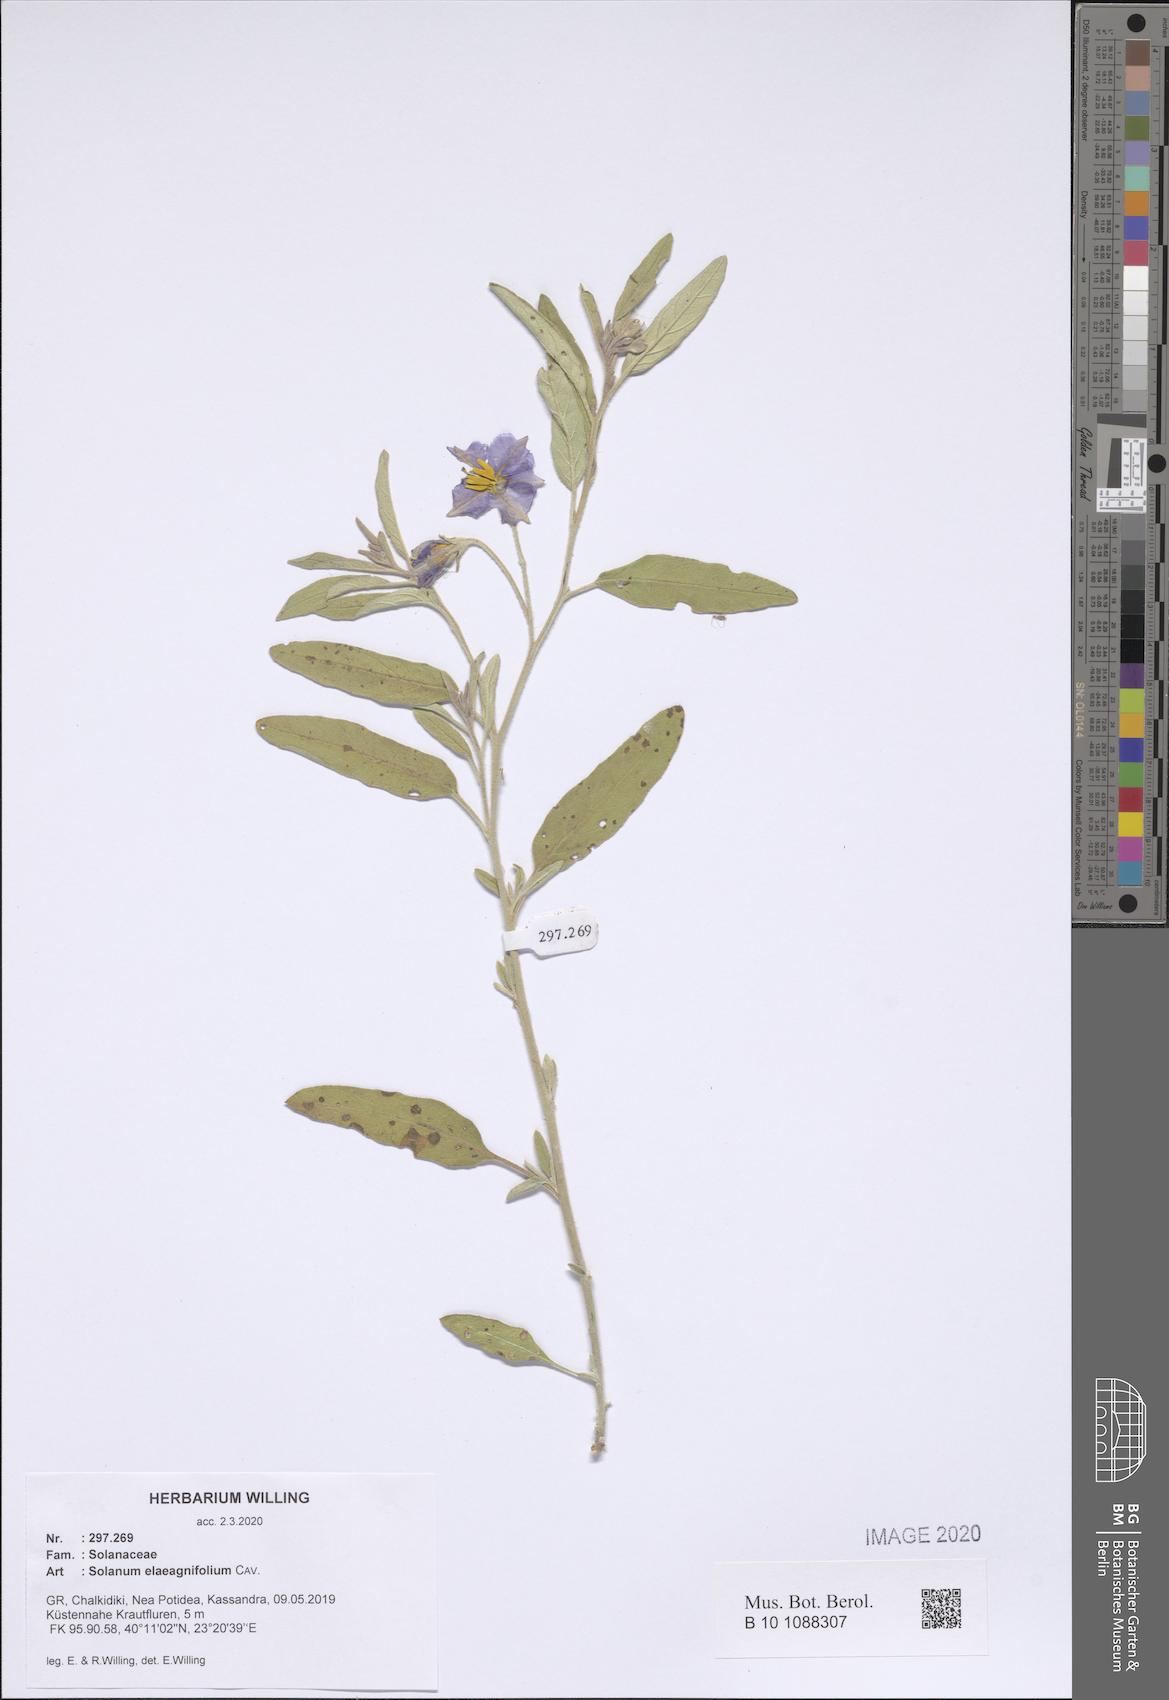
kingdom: Plantae
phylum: Tracheophyta
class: Magnoliopsida
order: Solanales
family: Solanaceae
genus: Solanum
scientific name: Solanum elaeagnifolium
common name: Silverleaf nightshade
